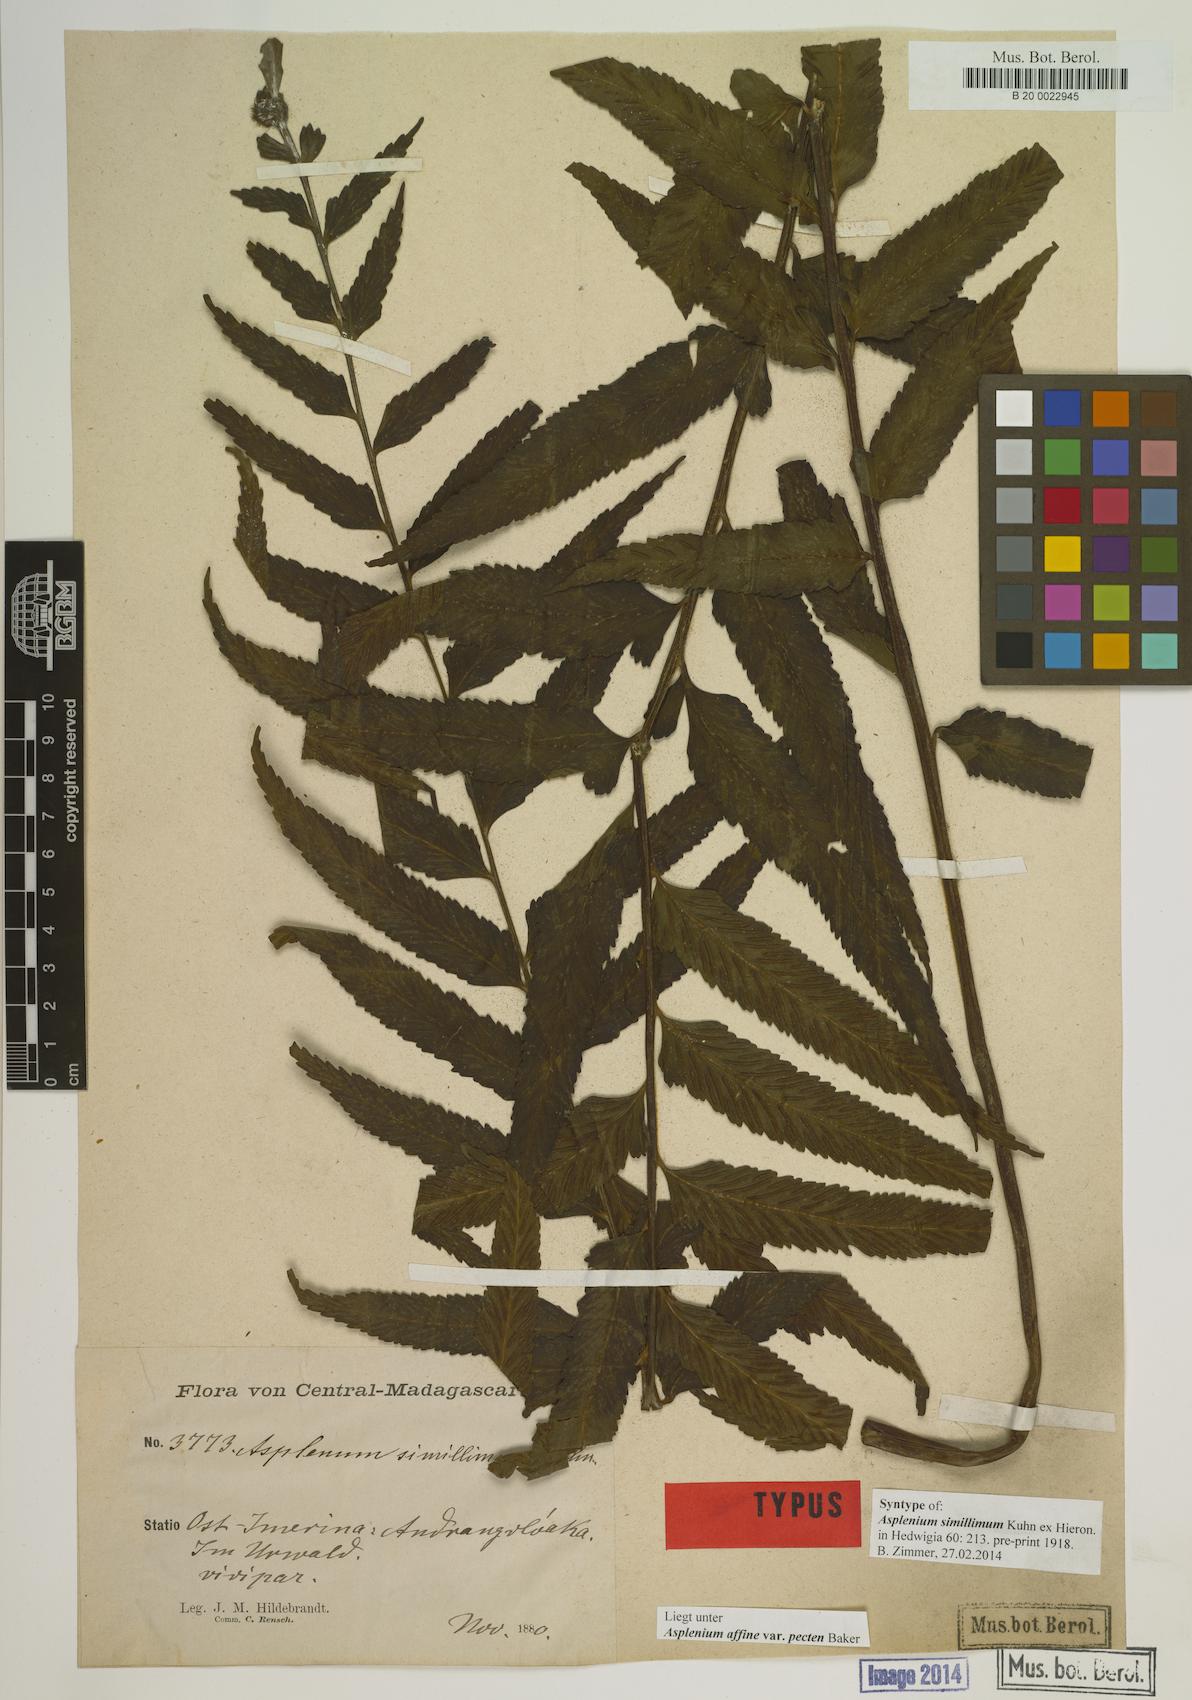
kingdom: Plantae
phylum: Tracheophyta
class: Polypodiopsida
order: Polypodiales
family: Aspleniaceae
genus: Asplenium
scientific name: Asplenium herpetopteris
